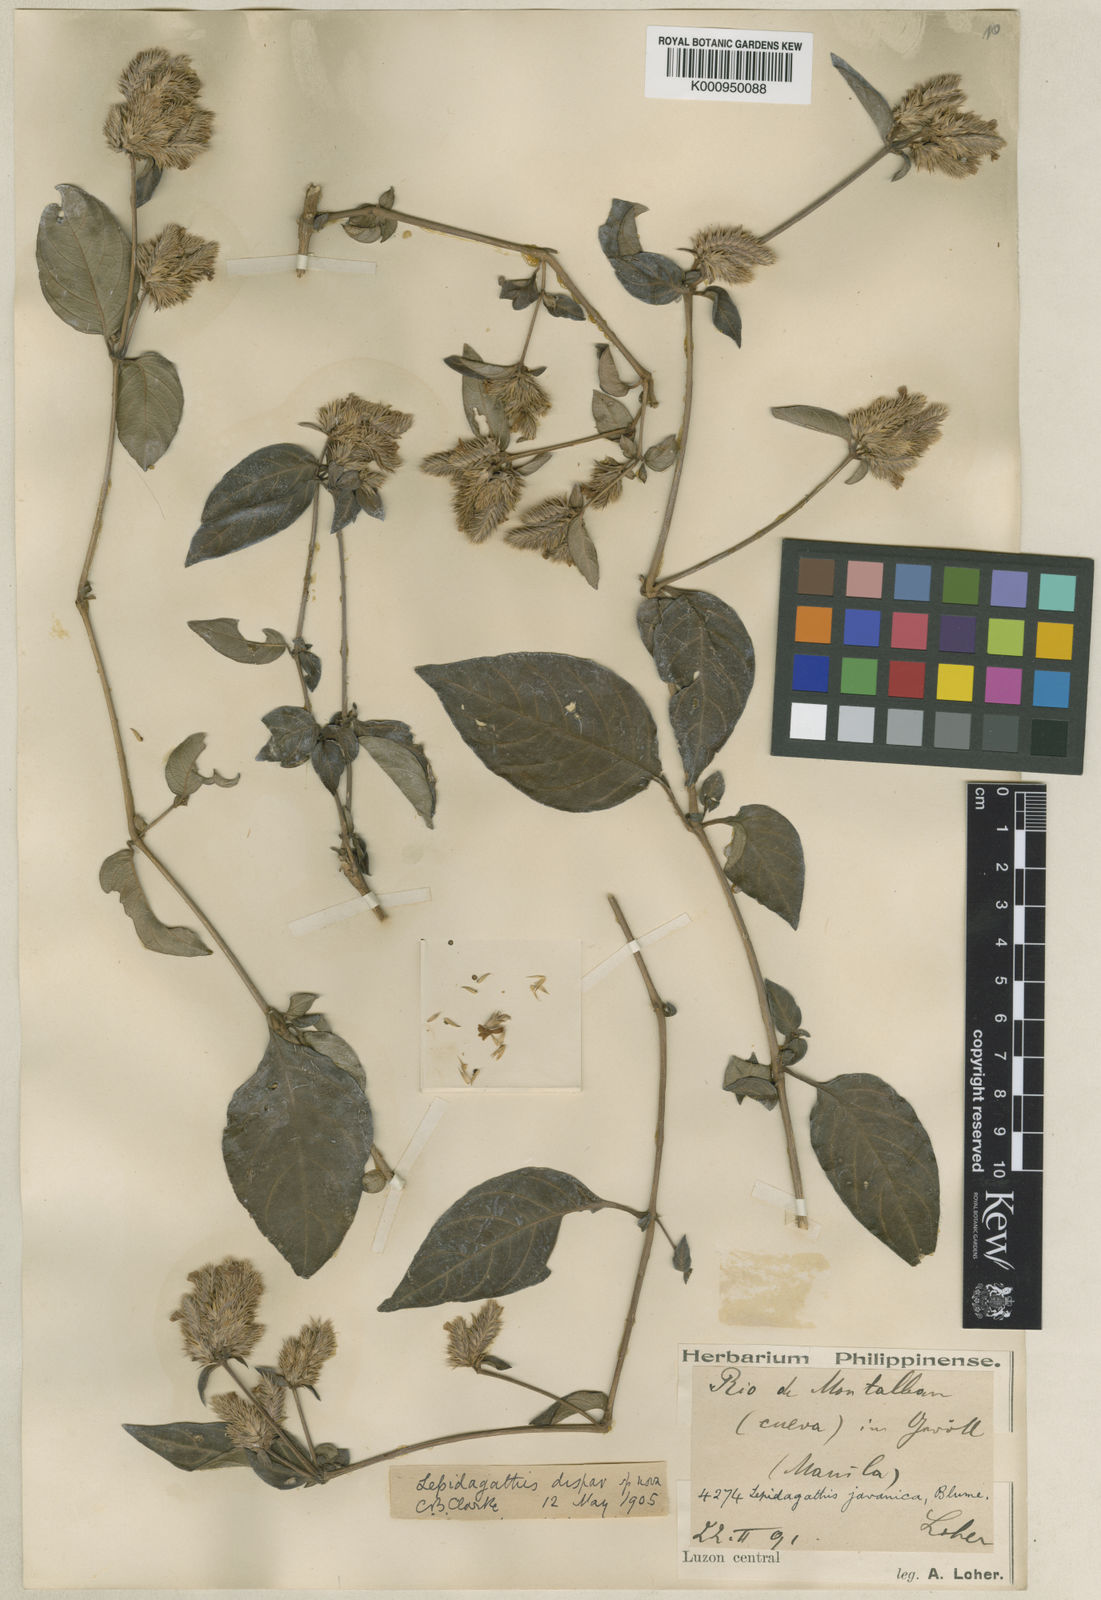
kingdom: Plantae
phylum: Tracheophyta
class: Magnoliopsida
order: Lamiales
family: Acanthaceae
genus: Lepidagathis
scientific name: Lepidagathis dispar
